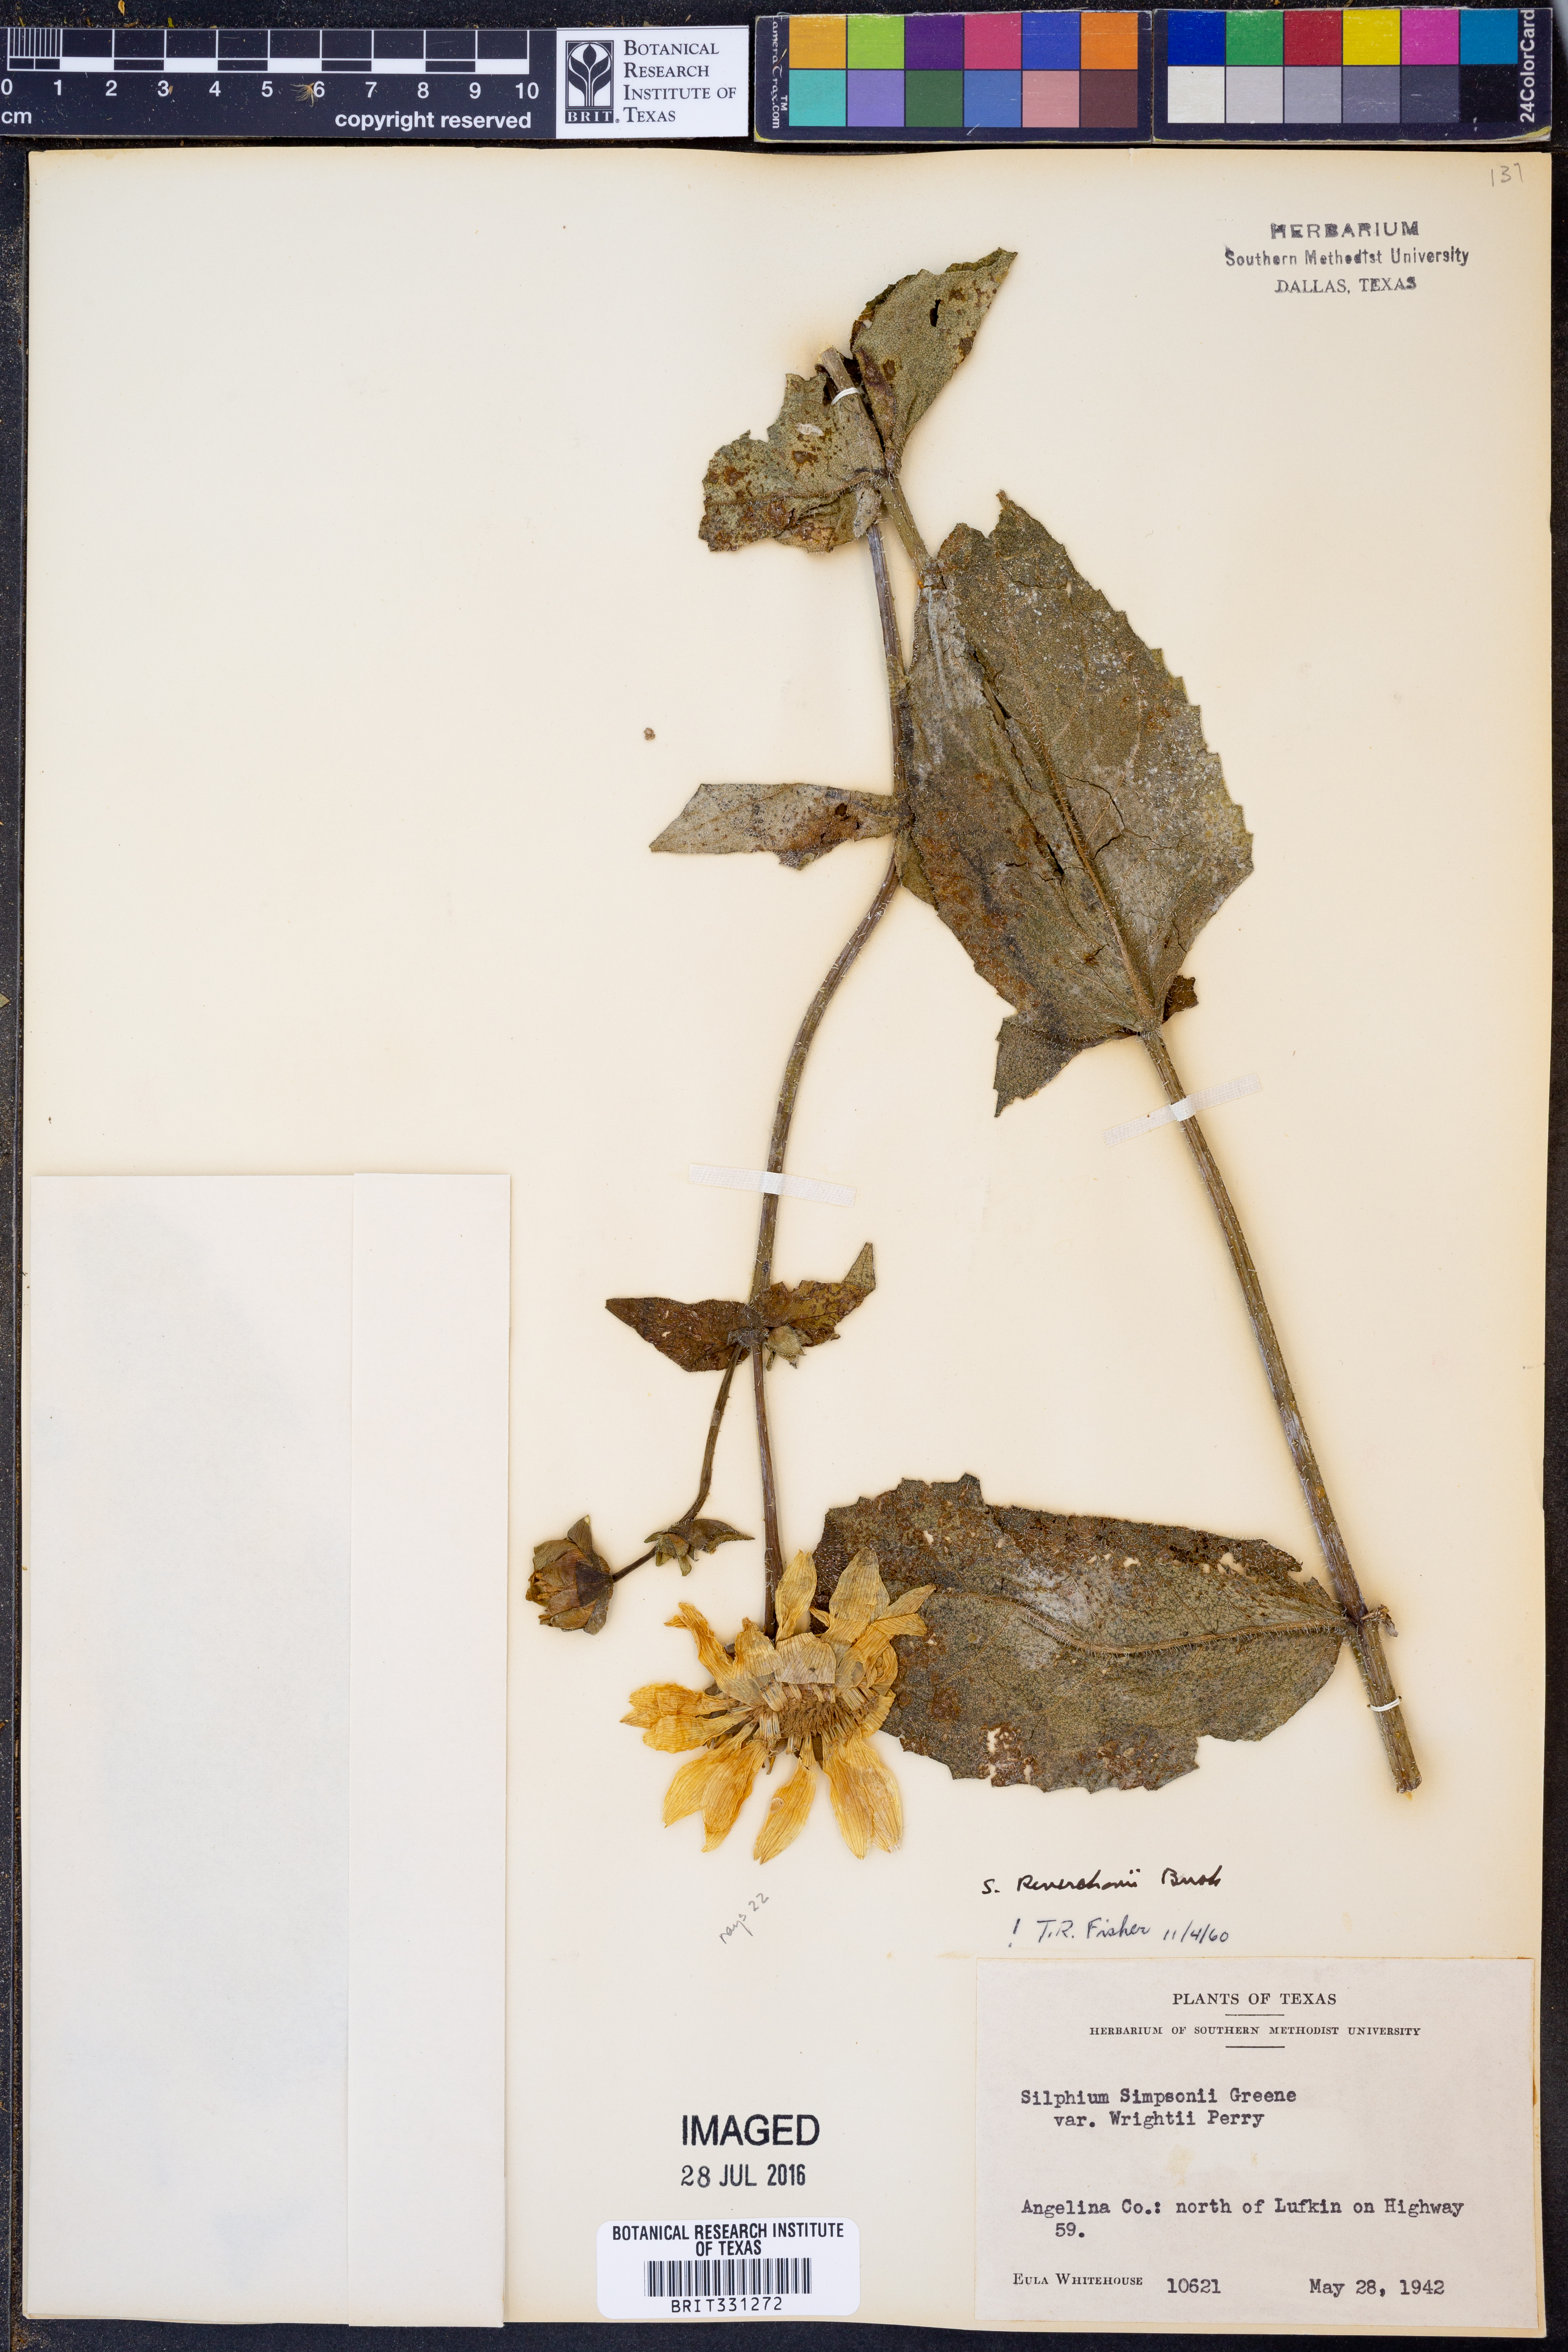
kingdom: Plantae
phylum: Tracheophyta
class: Magnoliopsida
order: Asterales
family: Asteraceae
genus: Silphium
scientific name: Silphium radula
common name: Roughleaf rosinweed
